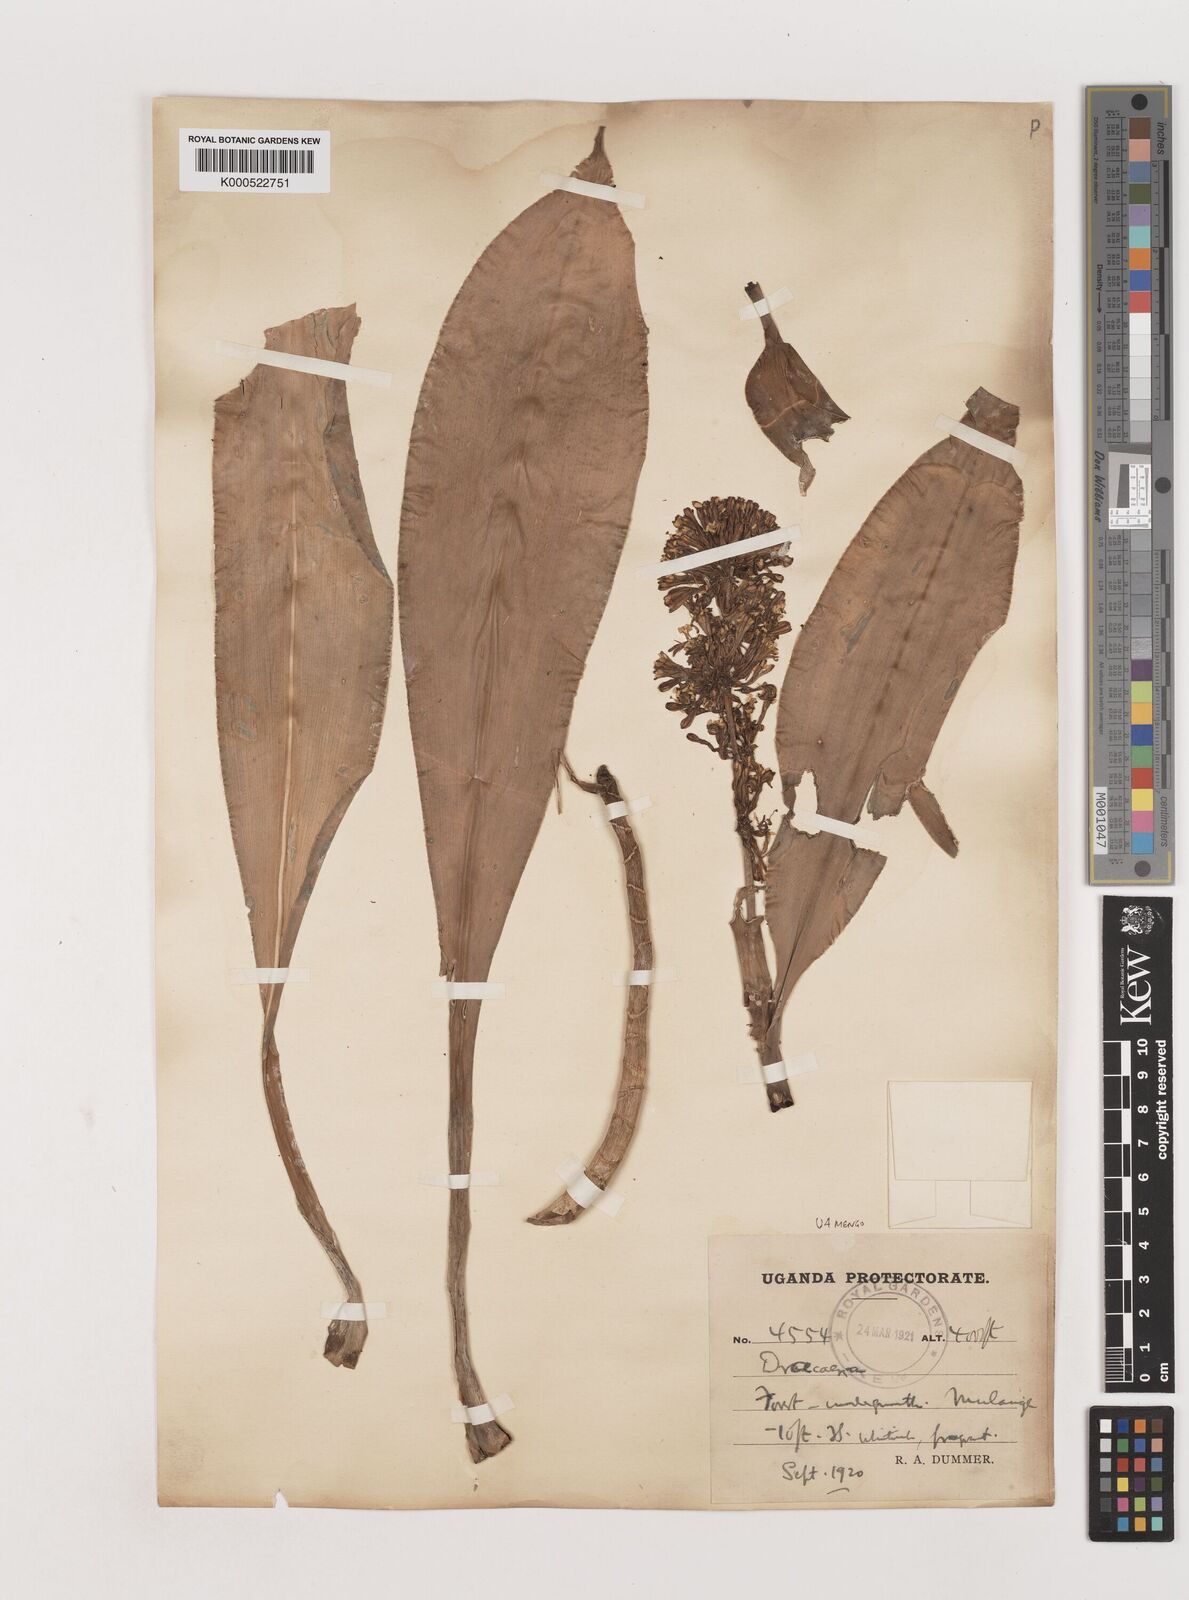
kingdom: Plantae
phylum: Tracheophyta
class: Liliopsida
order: Asparagales
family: Asparagaceae
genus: Dracaena
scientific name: Dracaena fragrans
